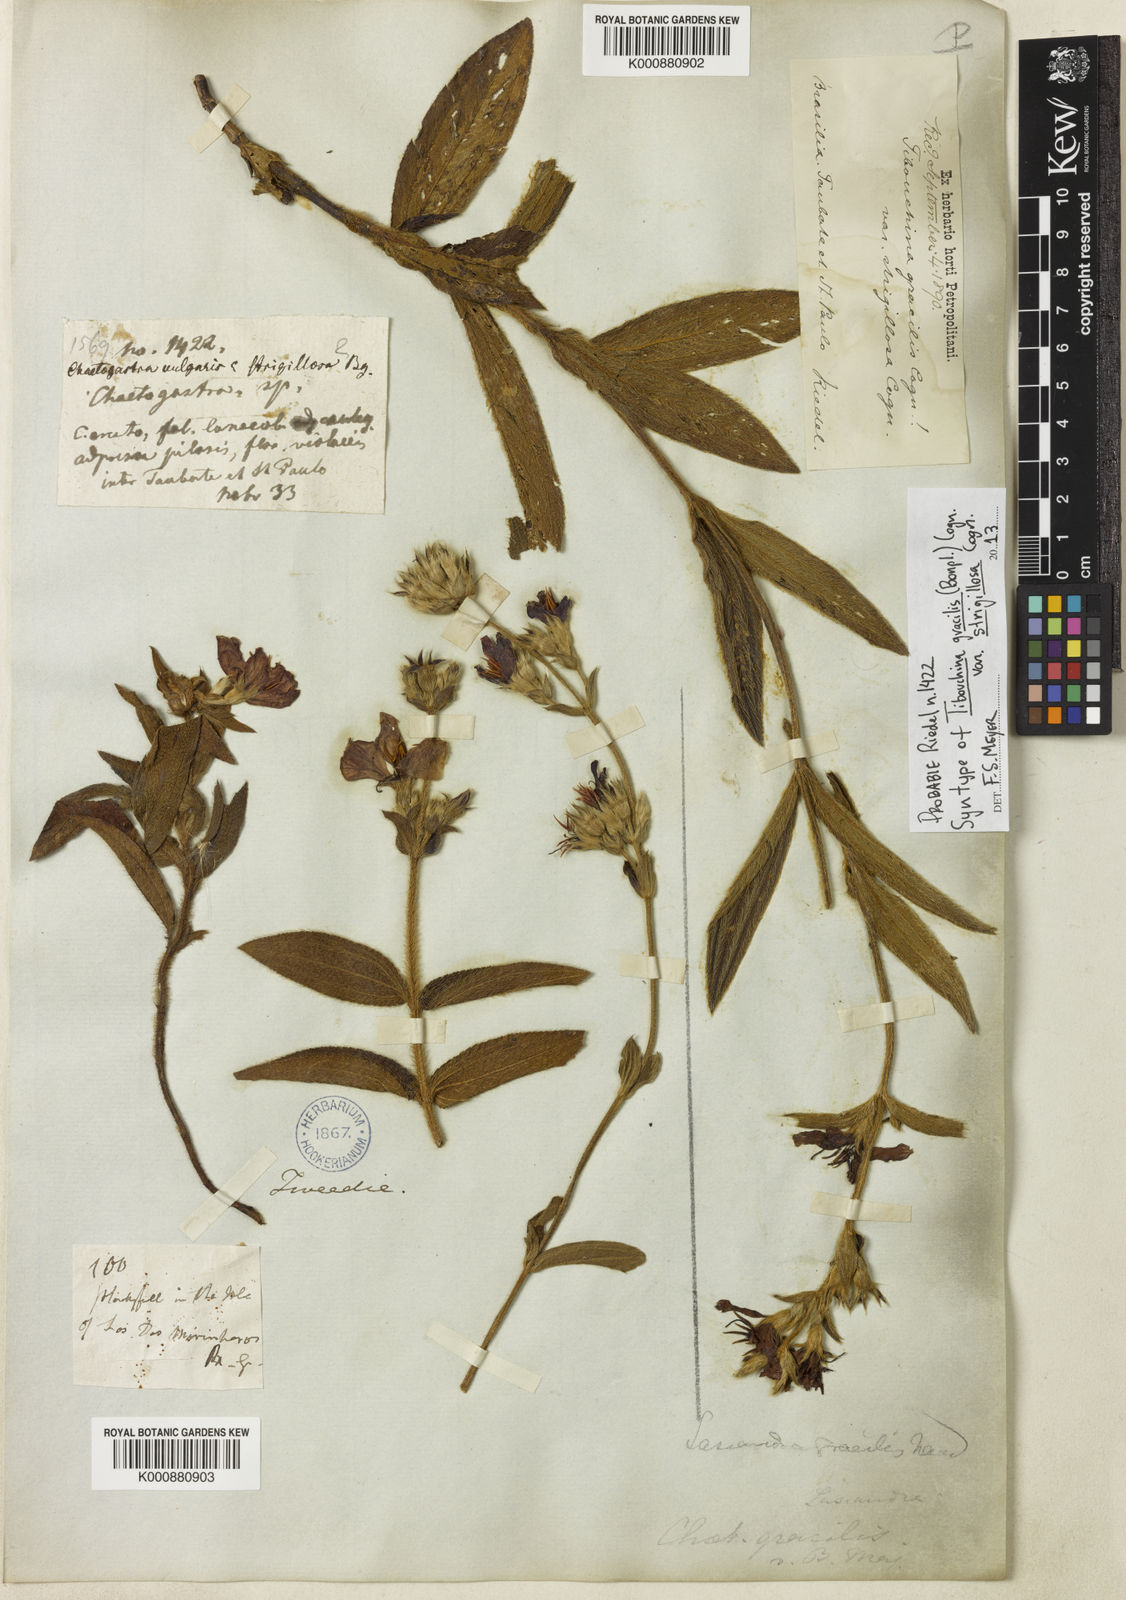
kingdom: Plantae
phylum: Tracheophyta
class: Magnoliopsida
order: Myrtales
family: Melastomataceae
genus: Chaetogastra
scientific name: Chaetogastra gracilis
